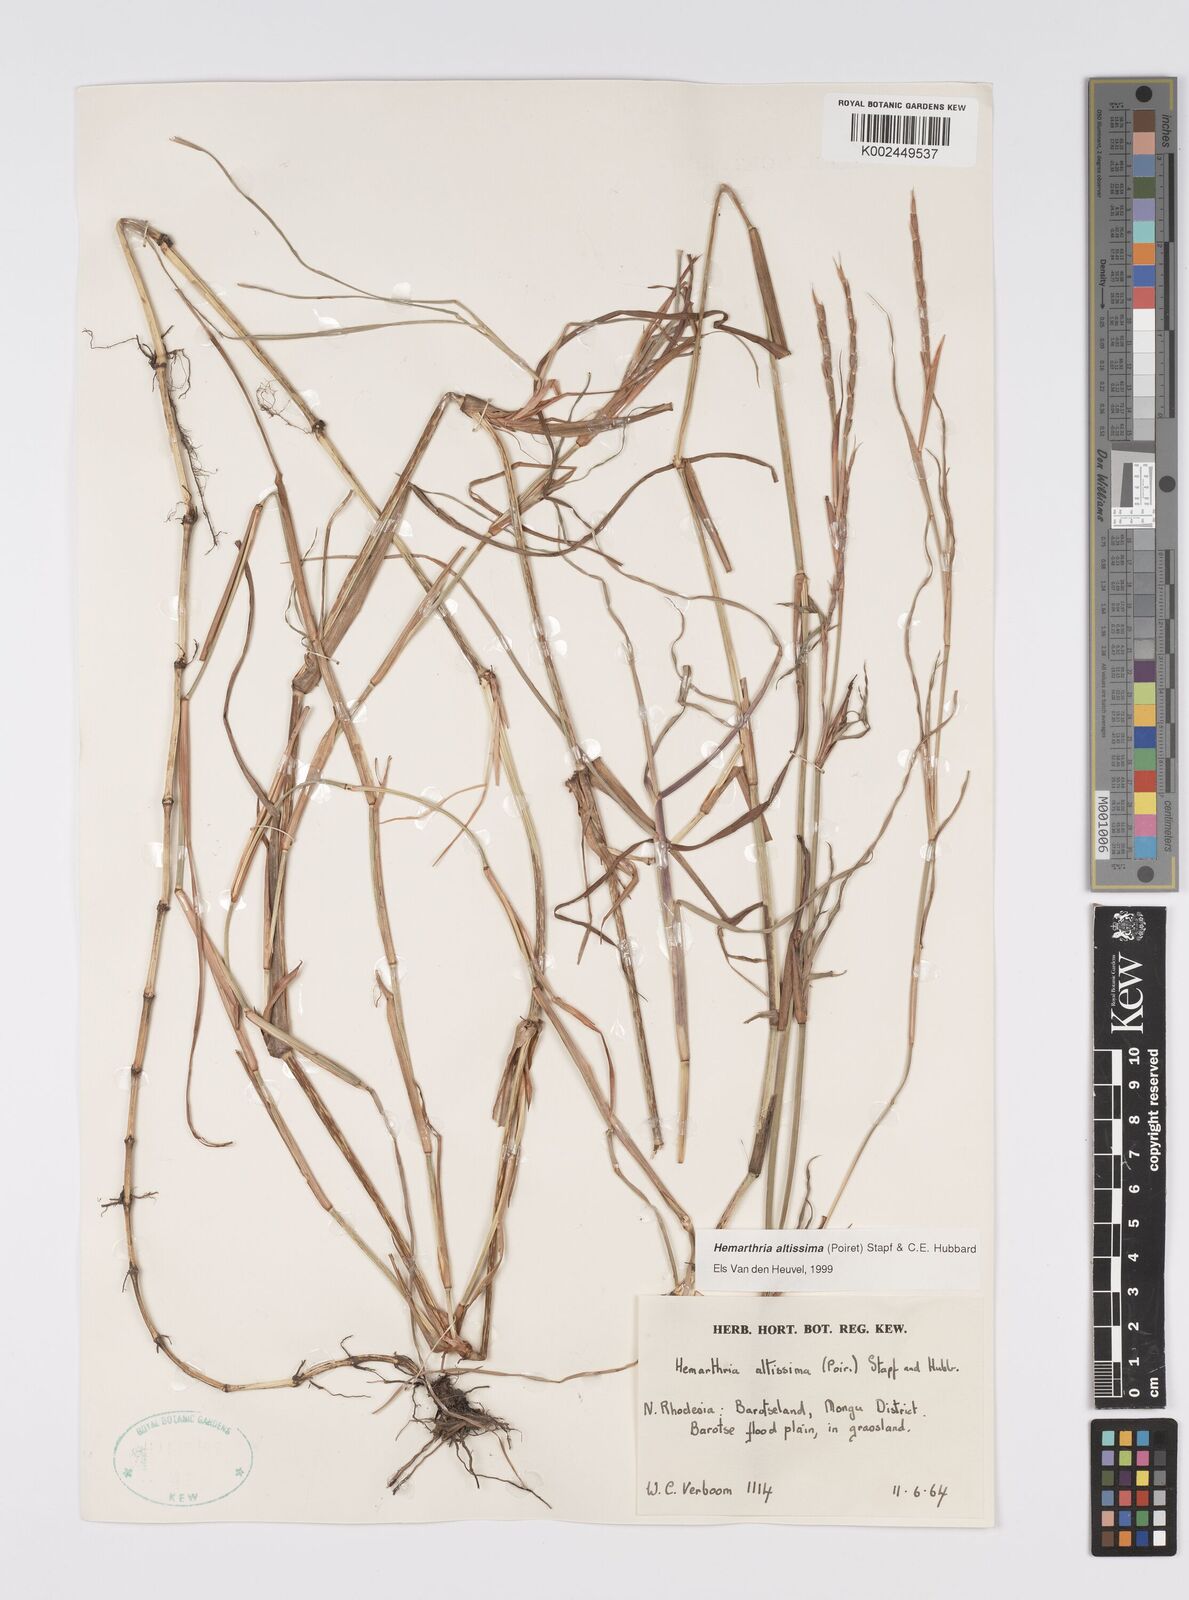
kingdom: Plantae
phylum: Tracheophyta
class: Liliopsida
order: Poales
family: Poaceae
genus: Hemarthria
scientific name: Hemarthria altissima
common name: African jointgrass
